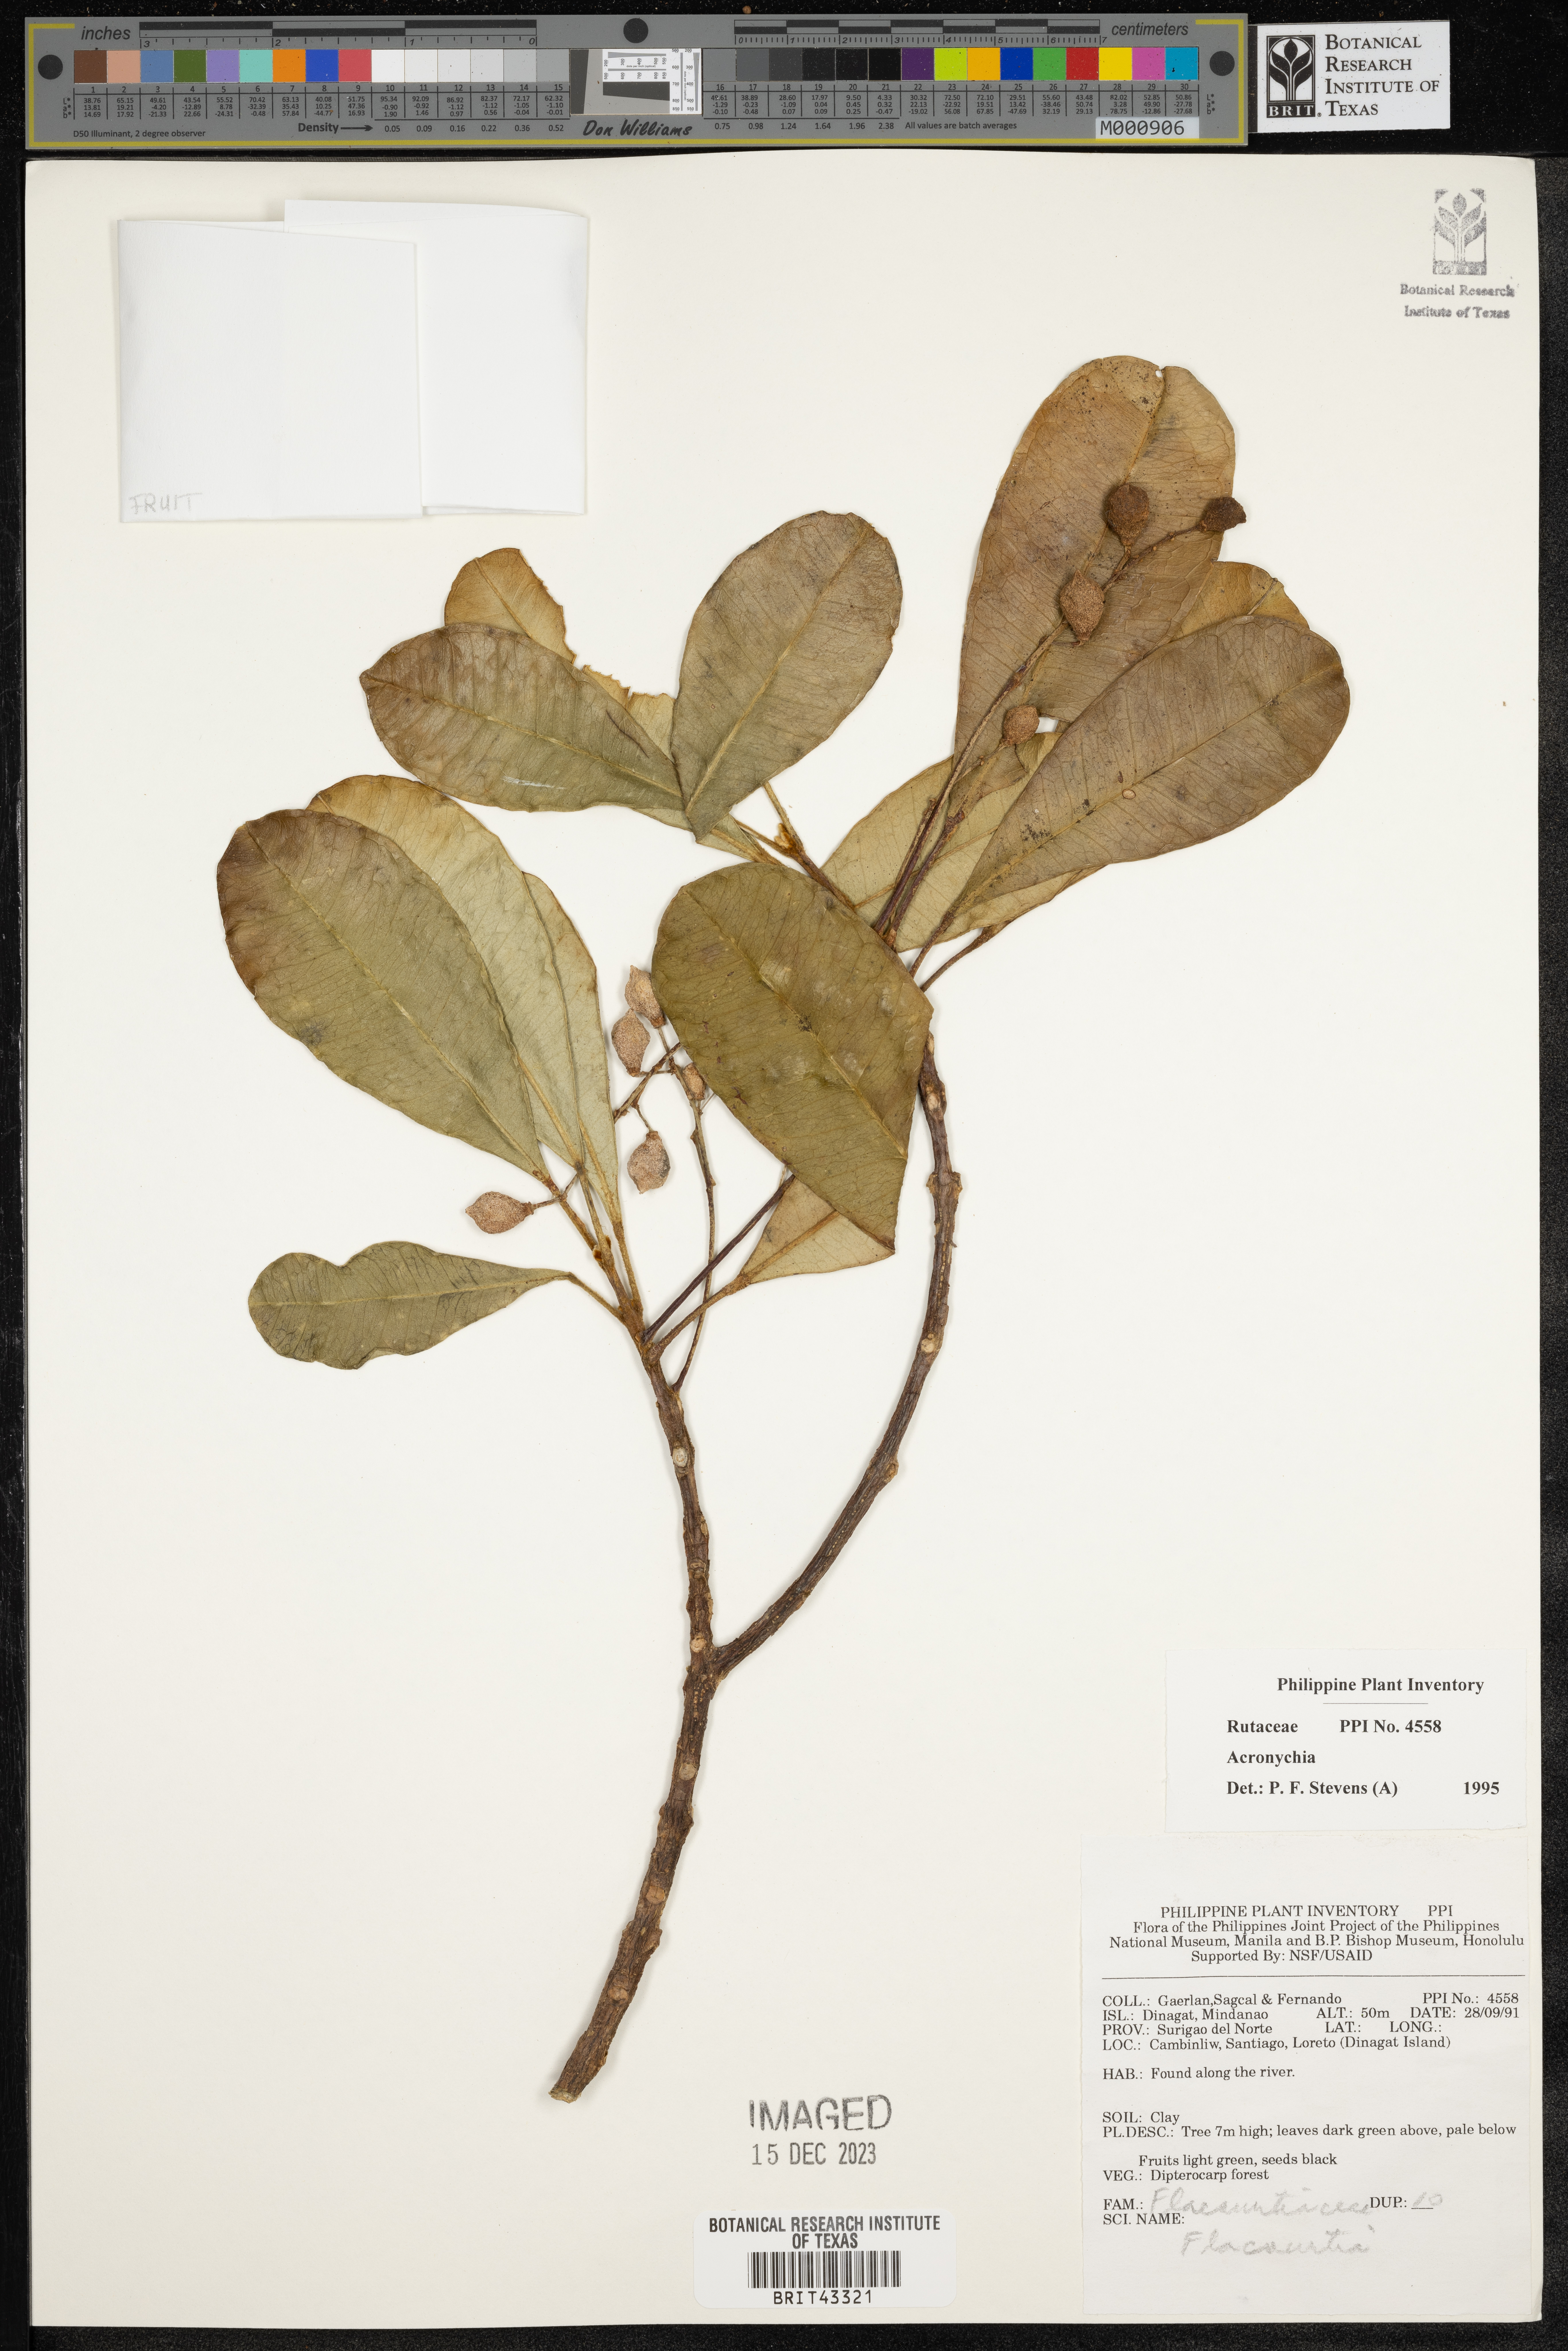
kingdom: Plantae
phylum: Tracheophyta
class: Magnoliopsida
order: Sapindales
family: Rutaceae
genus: Acronychia
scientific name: Acronychia
